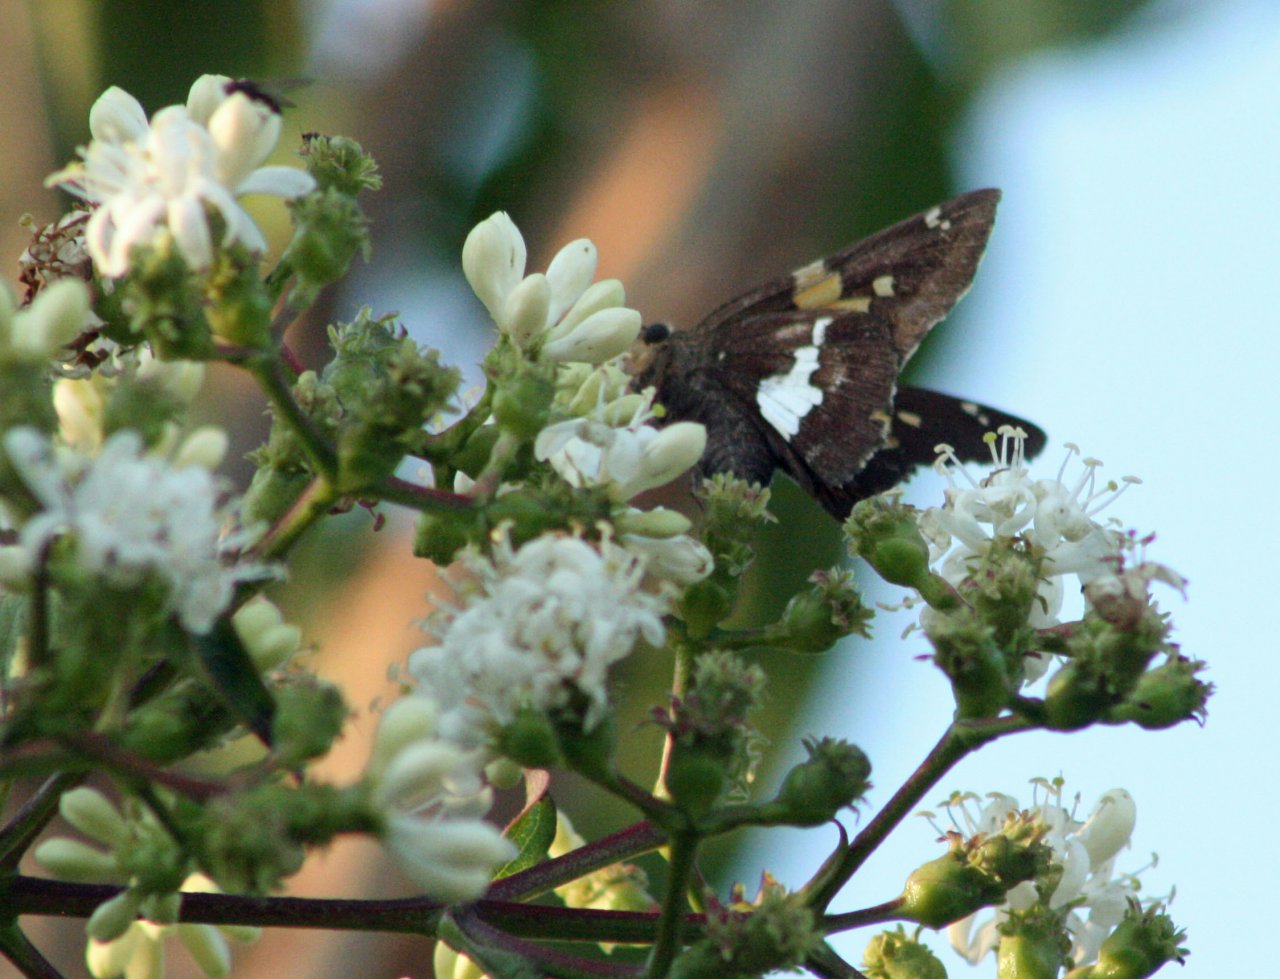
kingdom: Animalia
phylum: Arthropoda
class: Insecta
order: Lepidoptera
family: Hesperiidae
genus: Epargyreus
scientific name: Epargyreus clarus
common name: Silver-spotted Skipper
